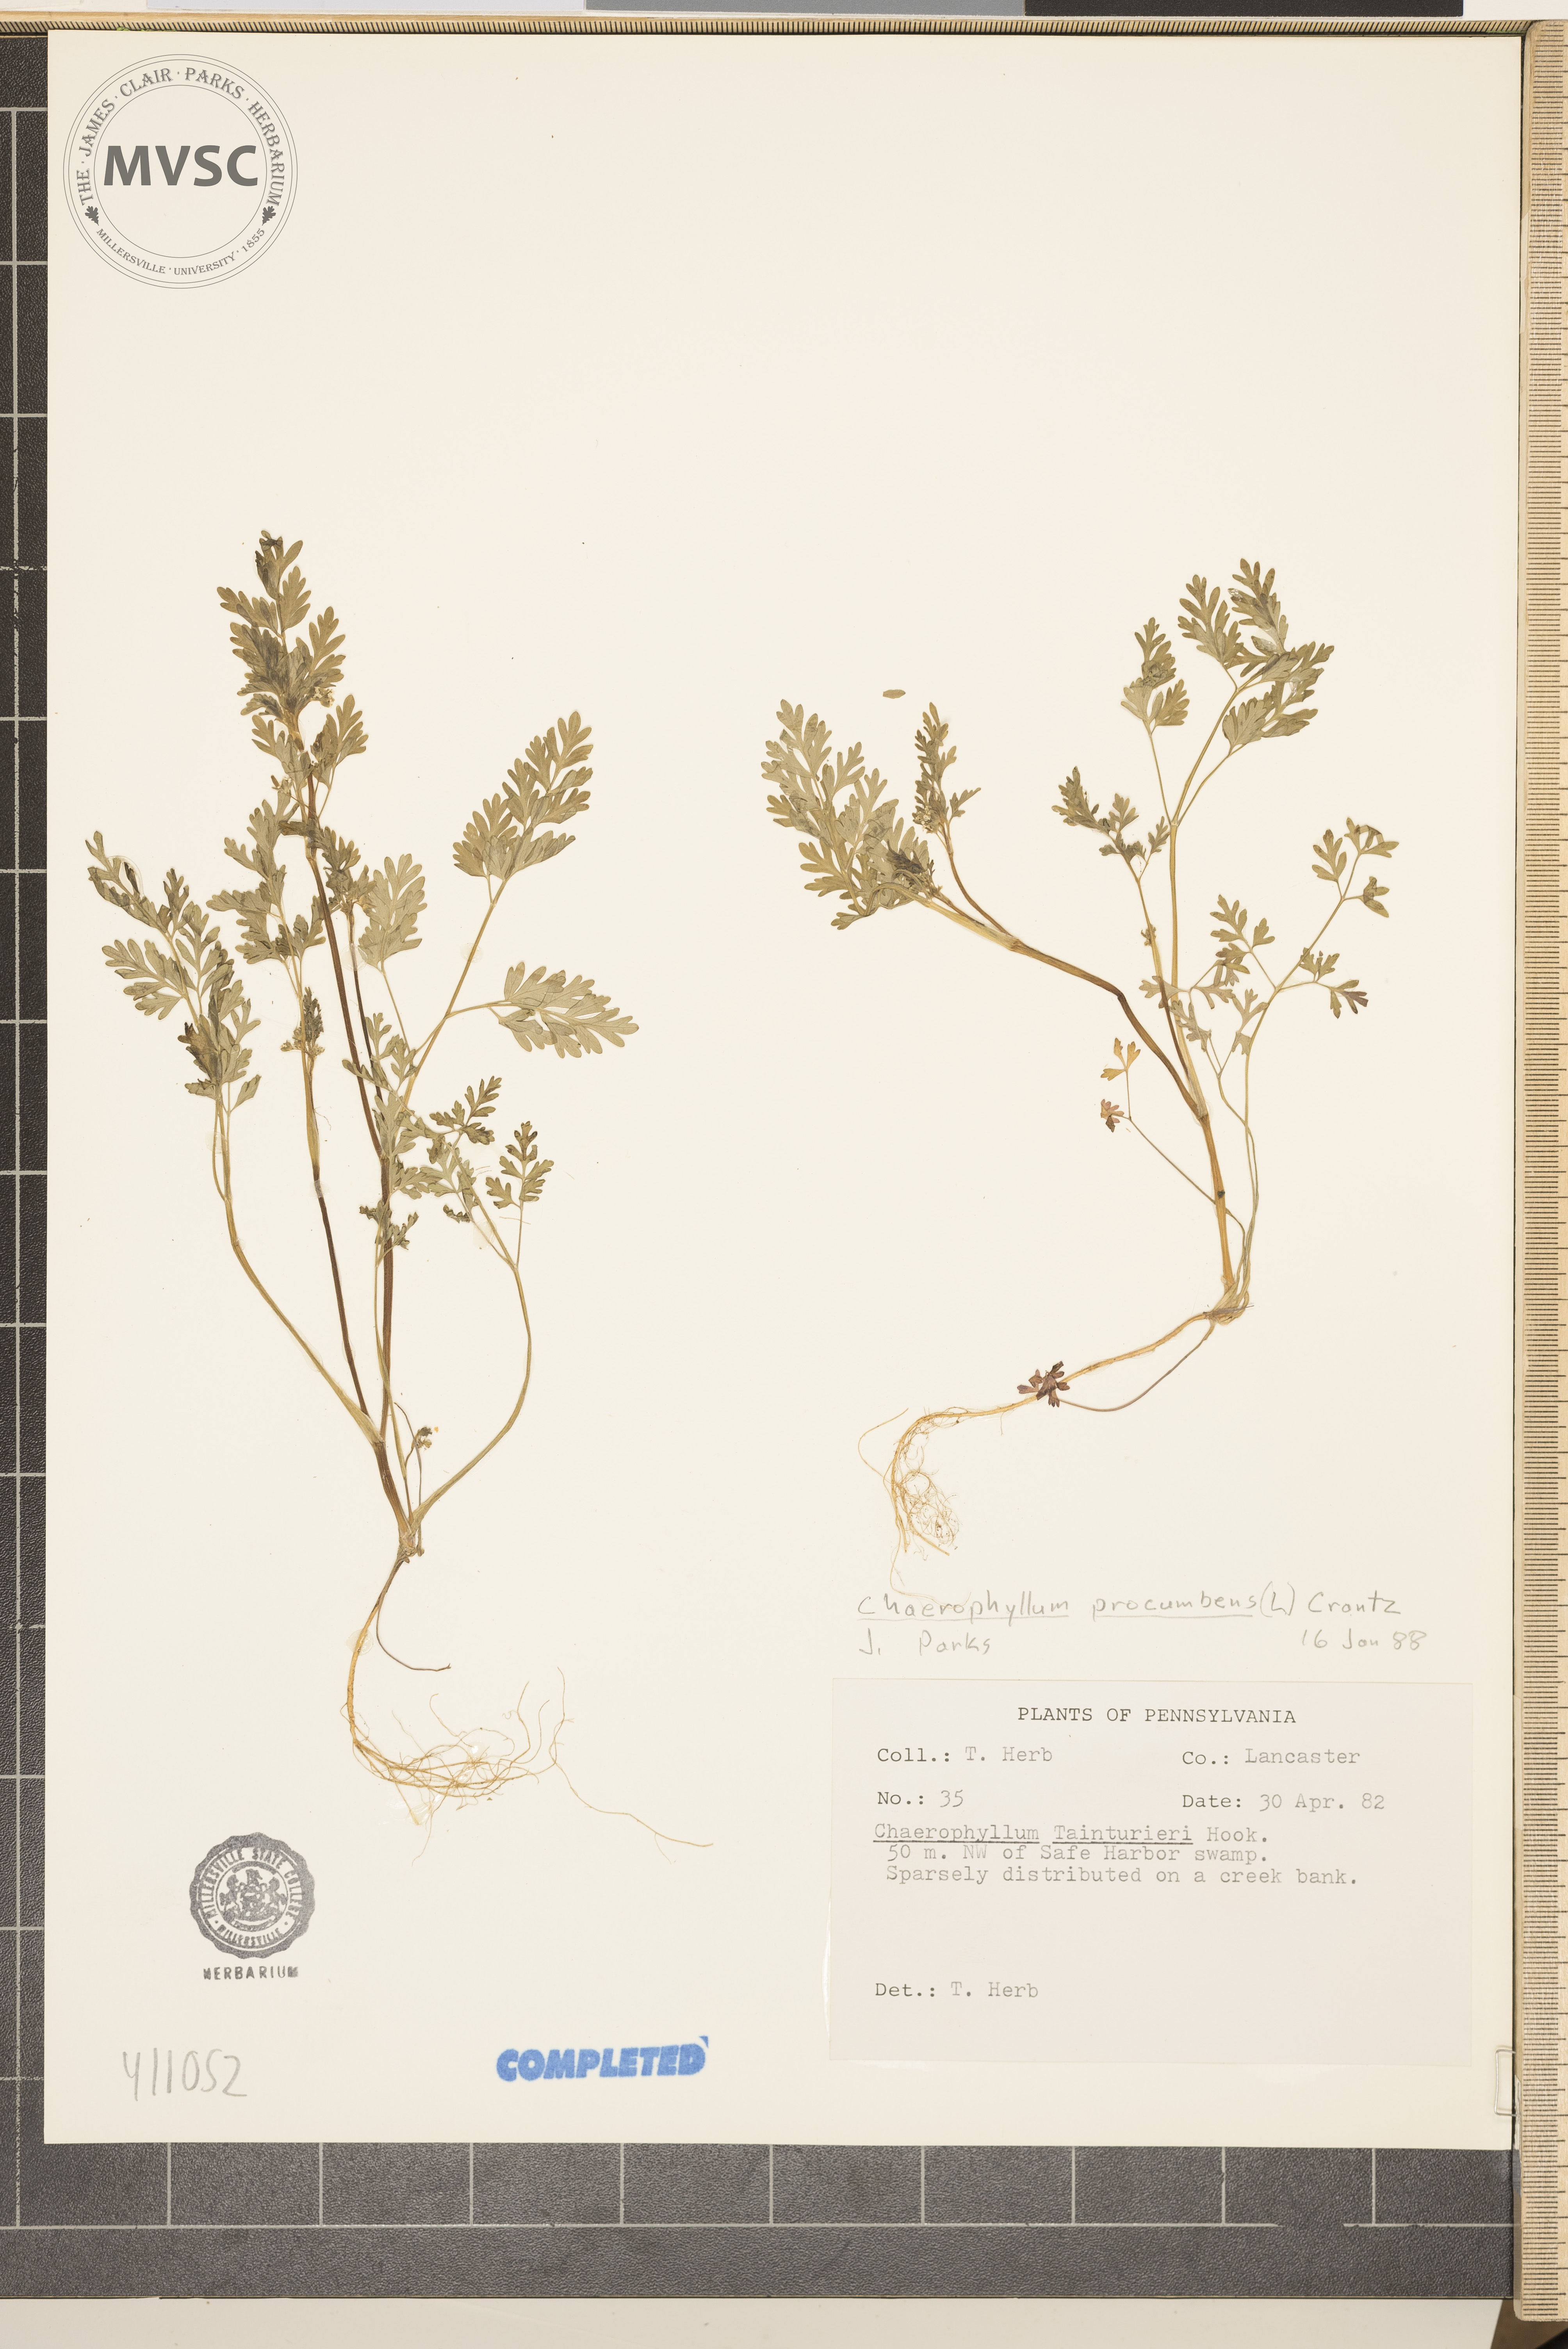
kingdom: Plantae
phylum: Tracheophyta
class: Magnoliopsida
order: Apiales
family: Apiaceae
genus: Chaerophyllum
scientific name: Chaerophyllum procumbens
